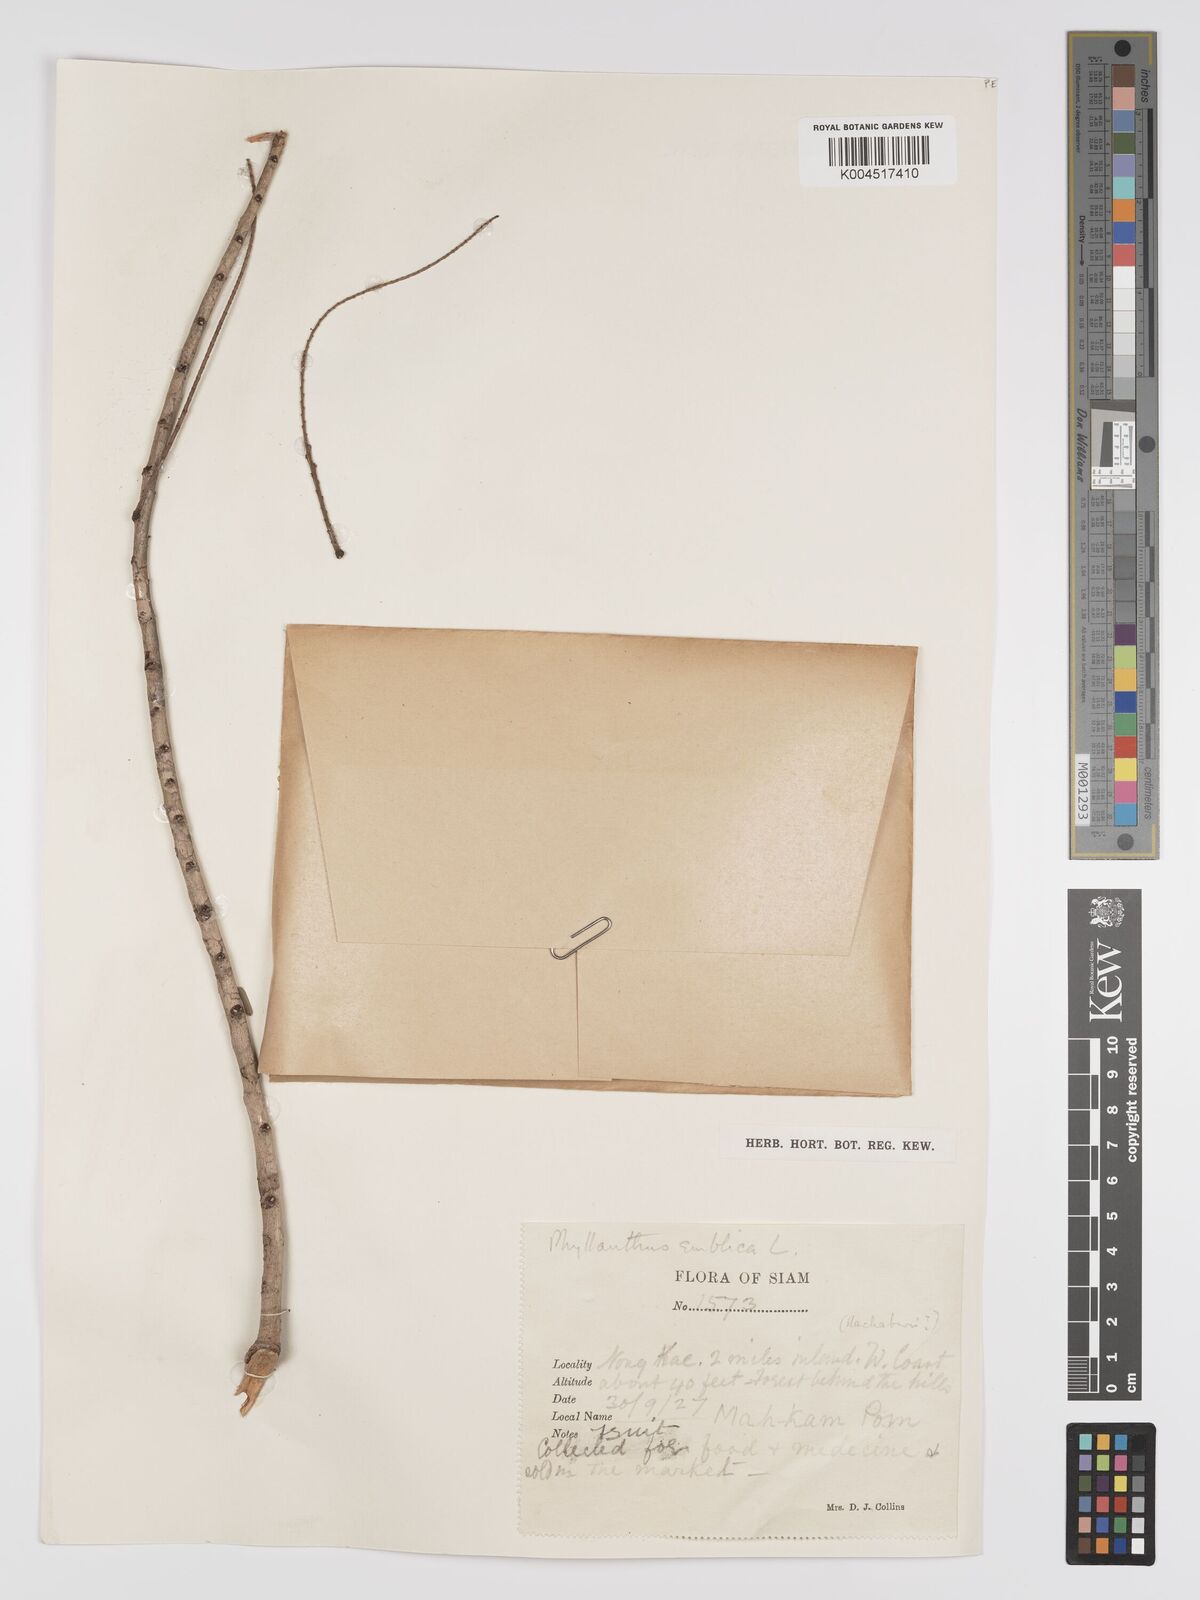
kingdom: Plantae
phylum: Tracheophyta
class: Magnoliopsida
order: Malpighiales
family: Phyllanthaceae
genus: Phyllanthus
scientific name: Phyllanthus emblica
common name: Indian gooseberry
